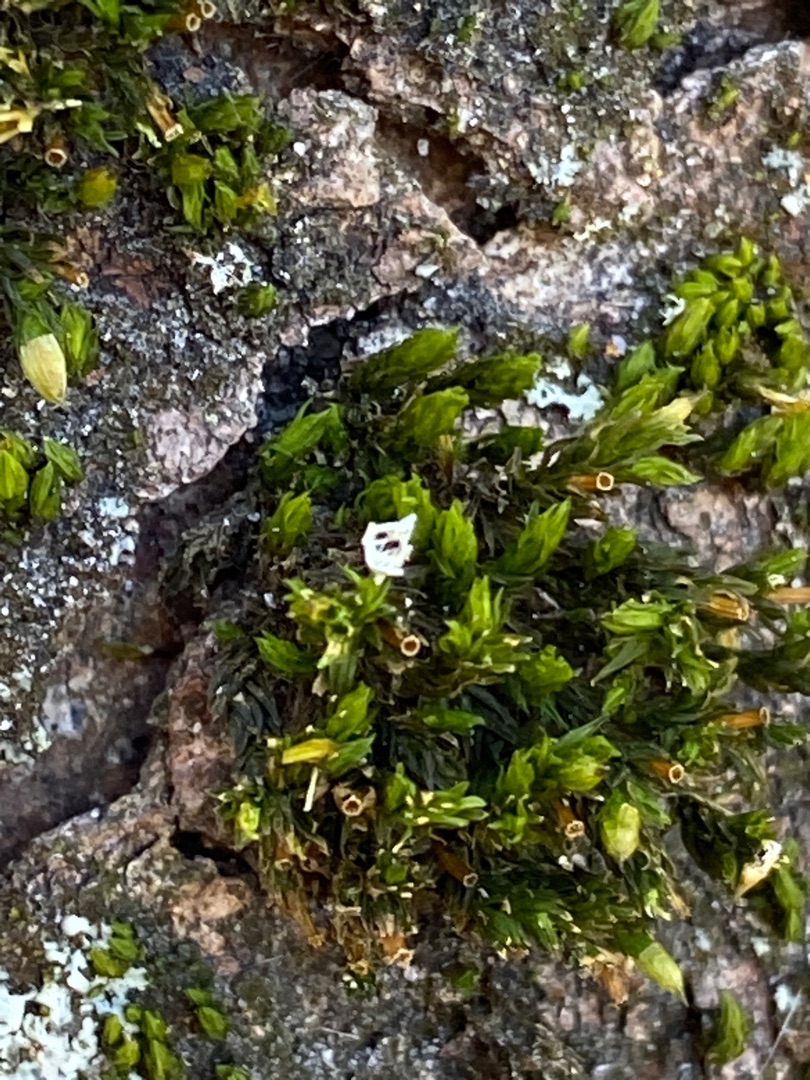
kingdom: Plantae
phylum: Bryophyta
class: Bryopsida
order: Orthotrichales
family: Orthotrichaceae
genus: Lewinskya
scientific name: Lewinskya affinis
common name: Almindelig furehætte
